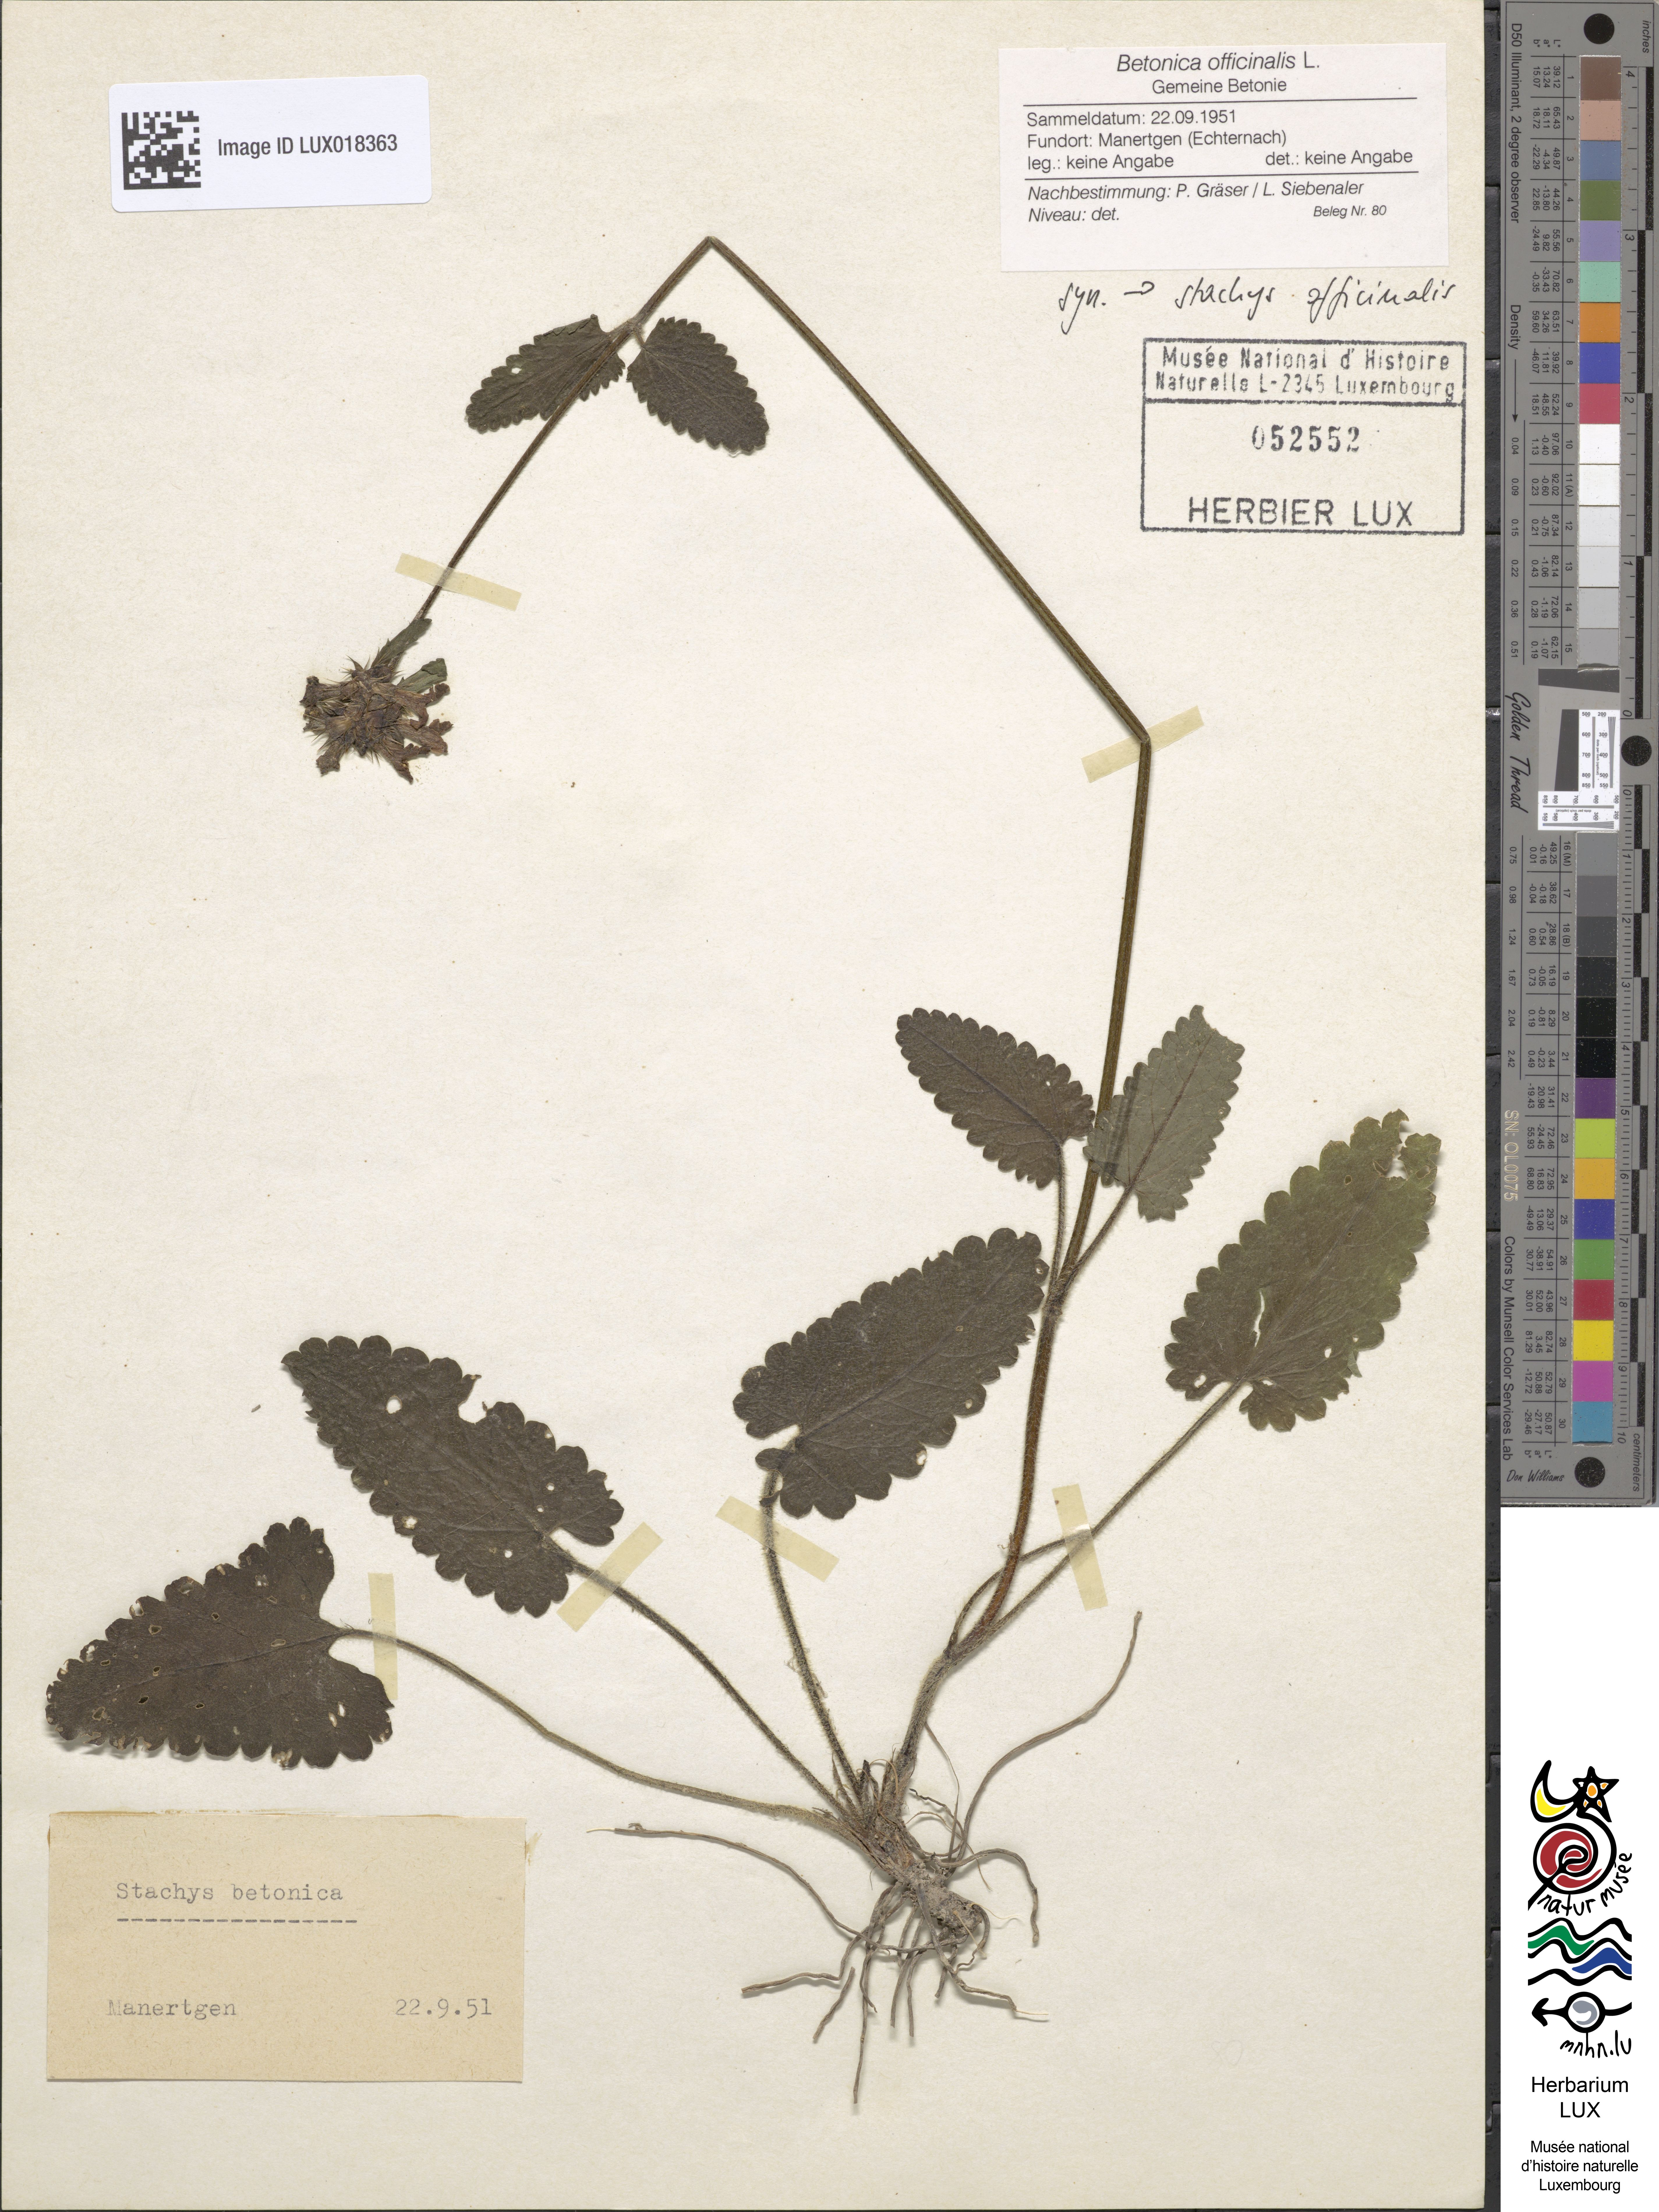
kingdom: Plantae
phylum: Tracheophyta
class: Magnoliopsida
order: Lamiales
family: Lamiaceae
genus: Betonica
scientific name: Betonica officinalis
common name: Bishop's-wort
